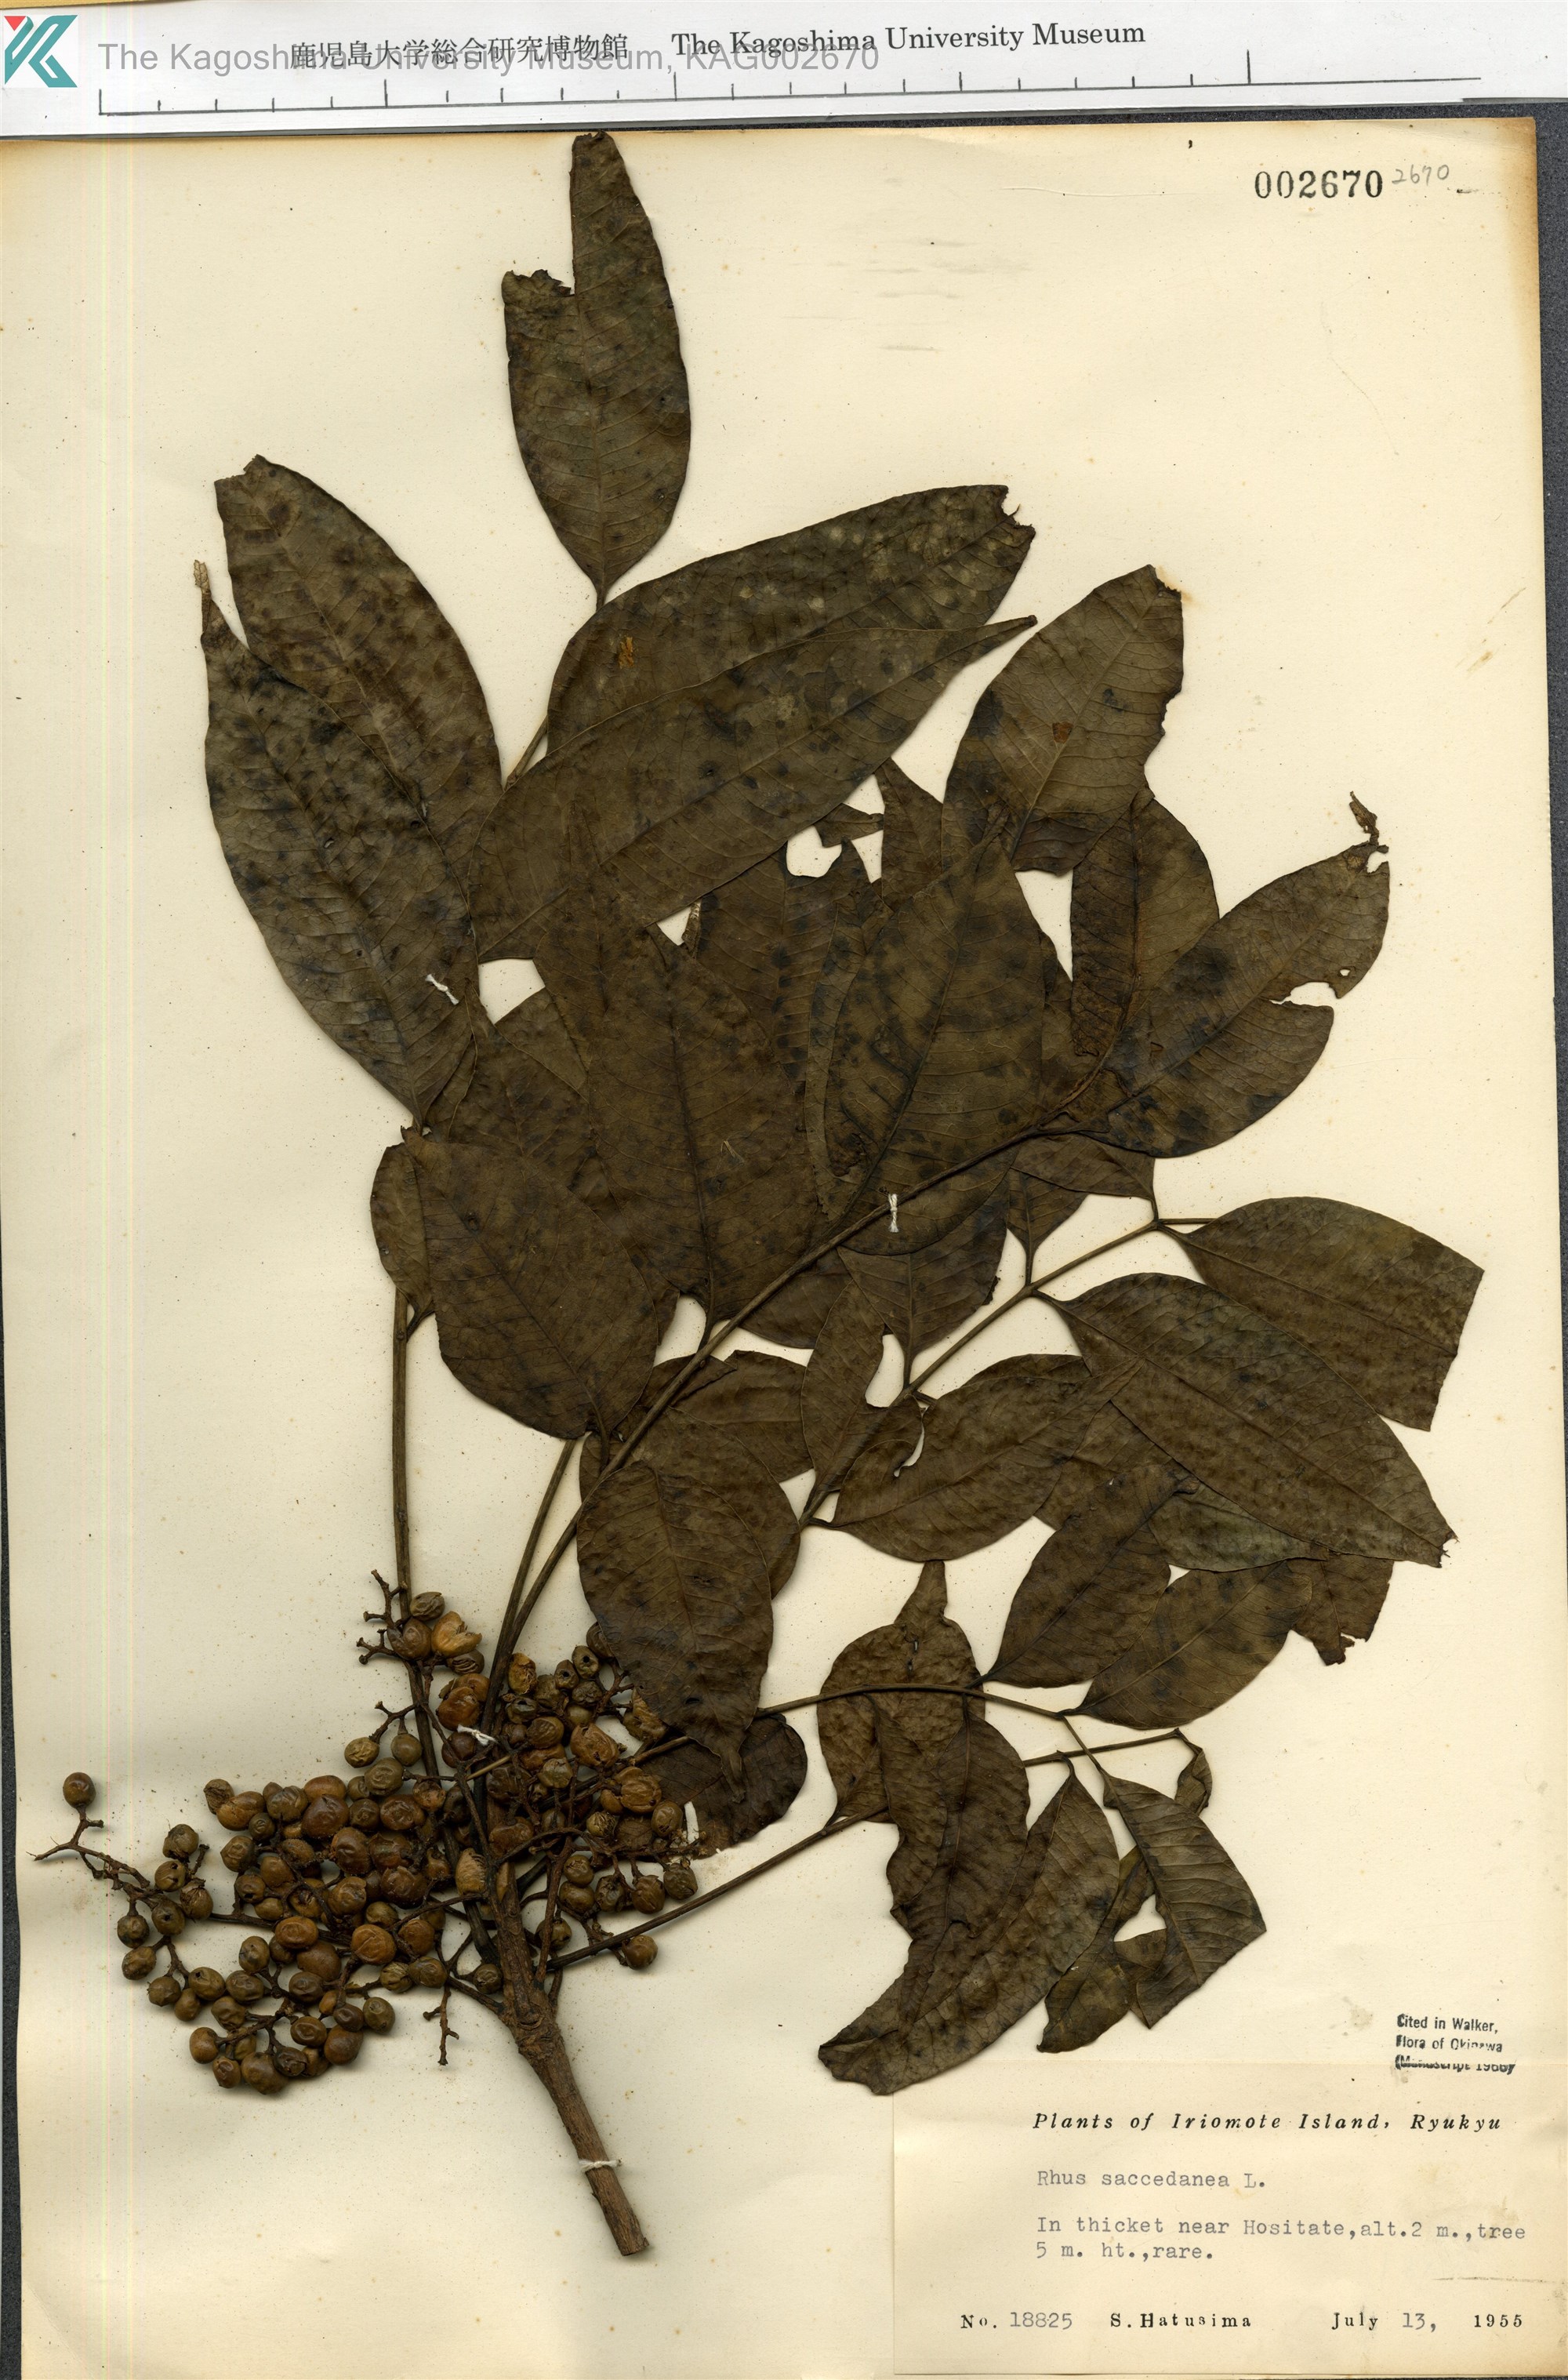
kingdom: Plantae
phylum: Tracheophyta
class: Magnoliopsida
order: Sapindales
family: Anacardiaceae
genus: Toxicodendron
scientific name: Toxicodendron succedaneum
